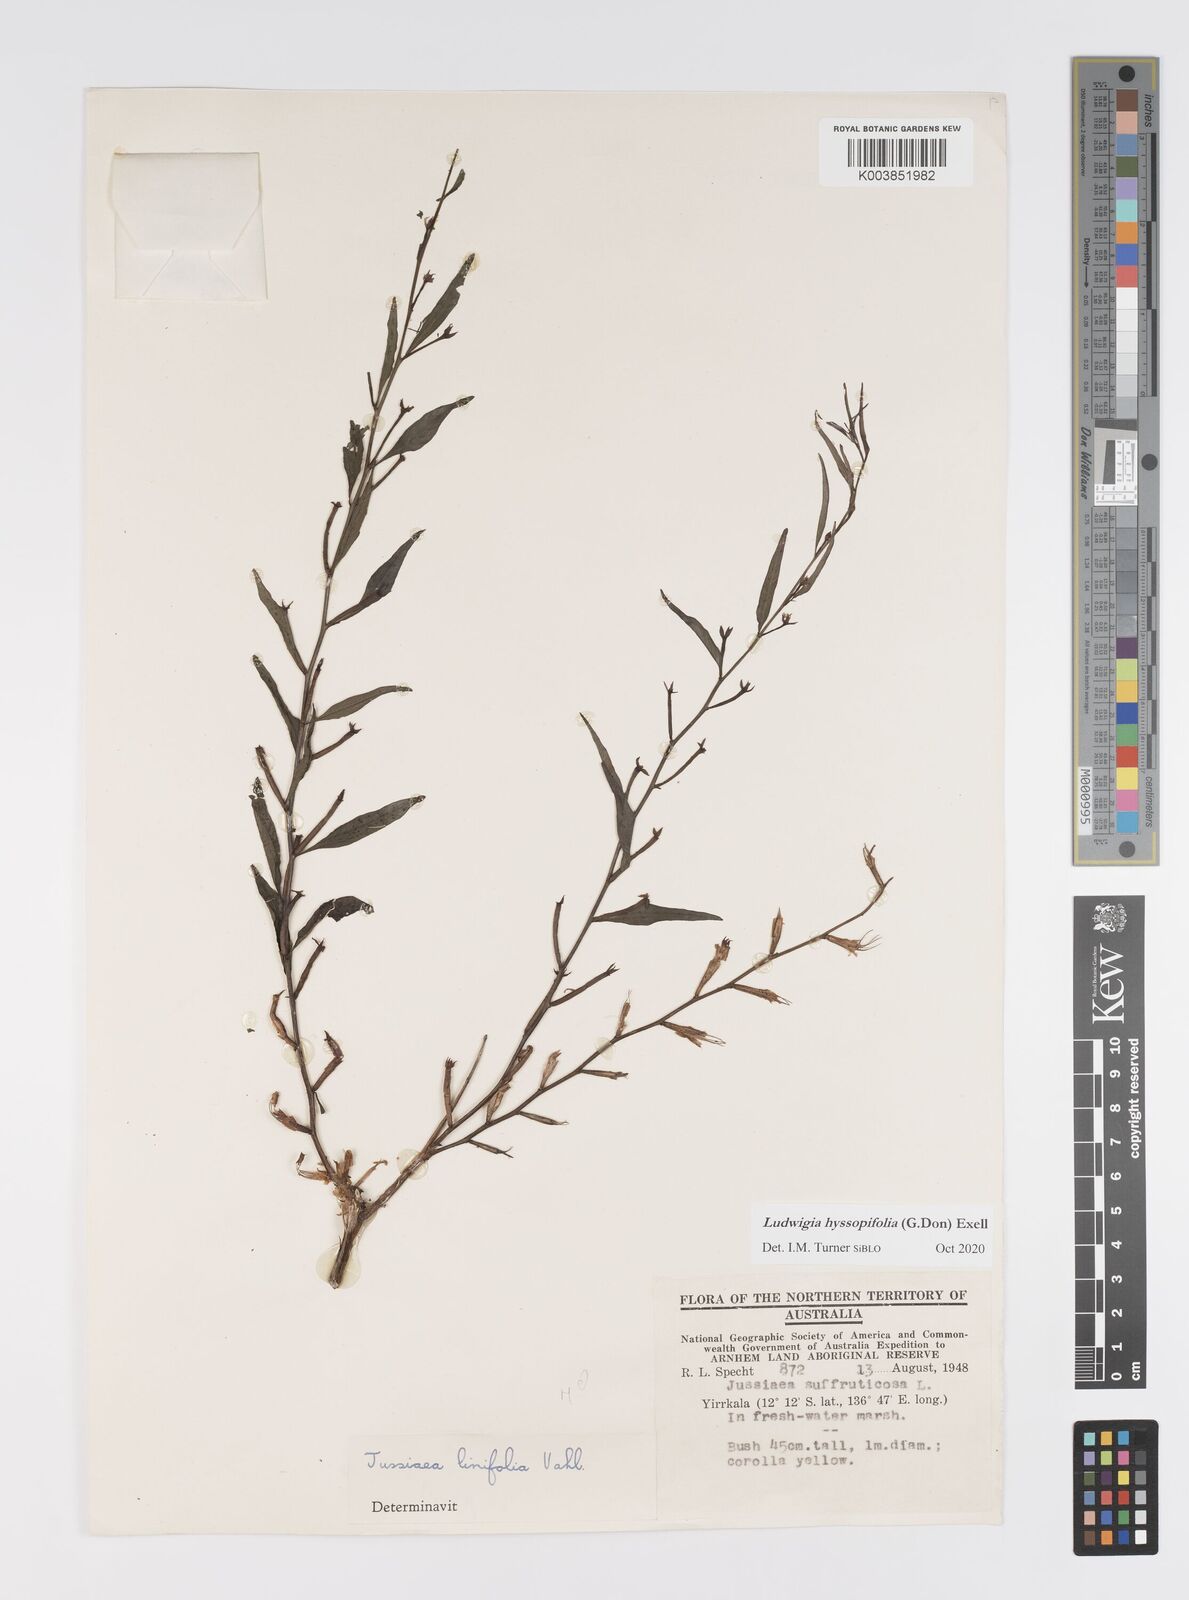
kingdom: Plantae
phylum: Tracheophyta
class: Magnoliopsida
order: Myrtales
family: Onagraceae
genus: Ludwigia
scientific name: Ludwigia hyssopifolia
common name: Linear leaf water primrose
